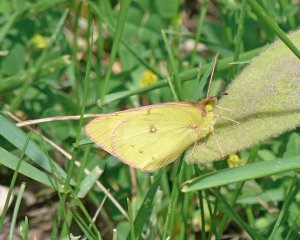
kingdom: Animalia
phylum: Arthropoda
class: Insecta
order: Lepidoptera
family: Pieridae
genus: Colias
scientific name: Colias philodice
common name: Clouded Sulphur
